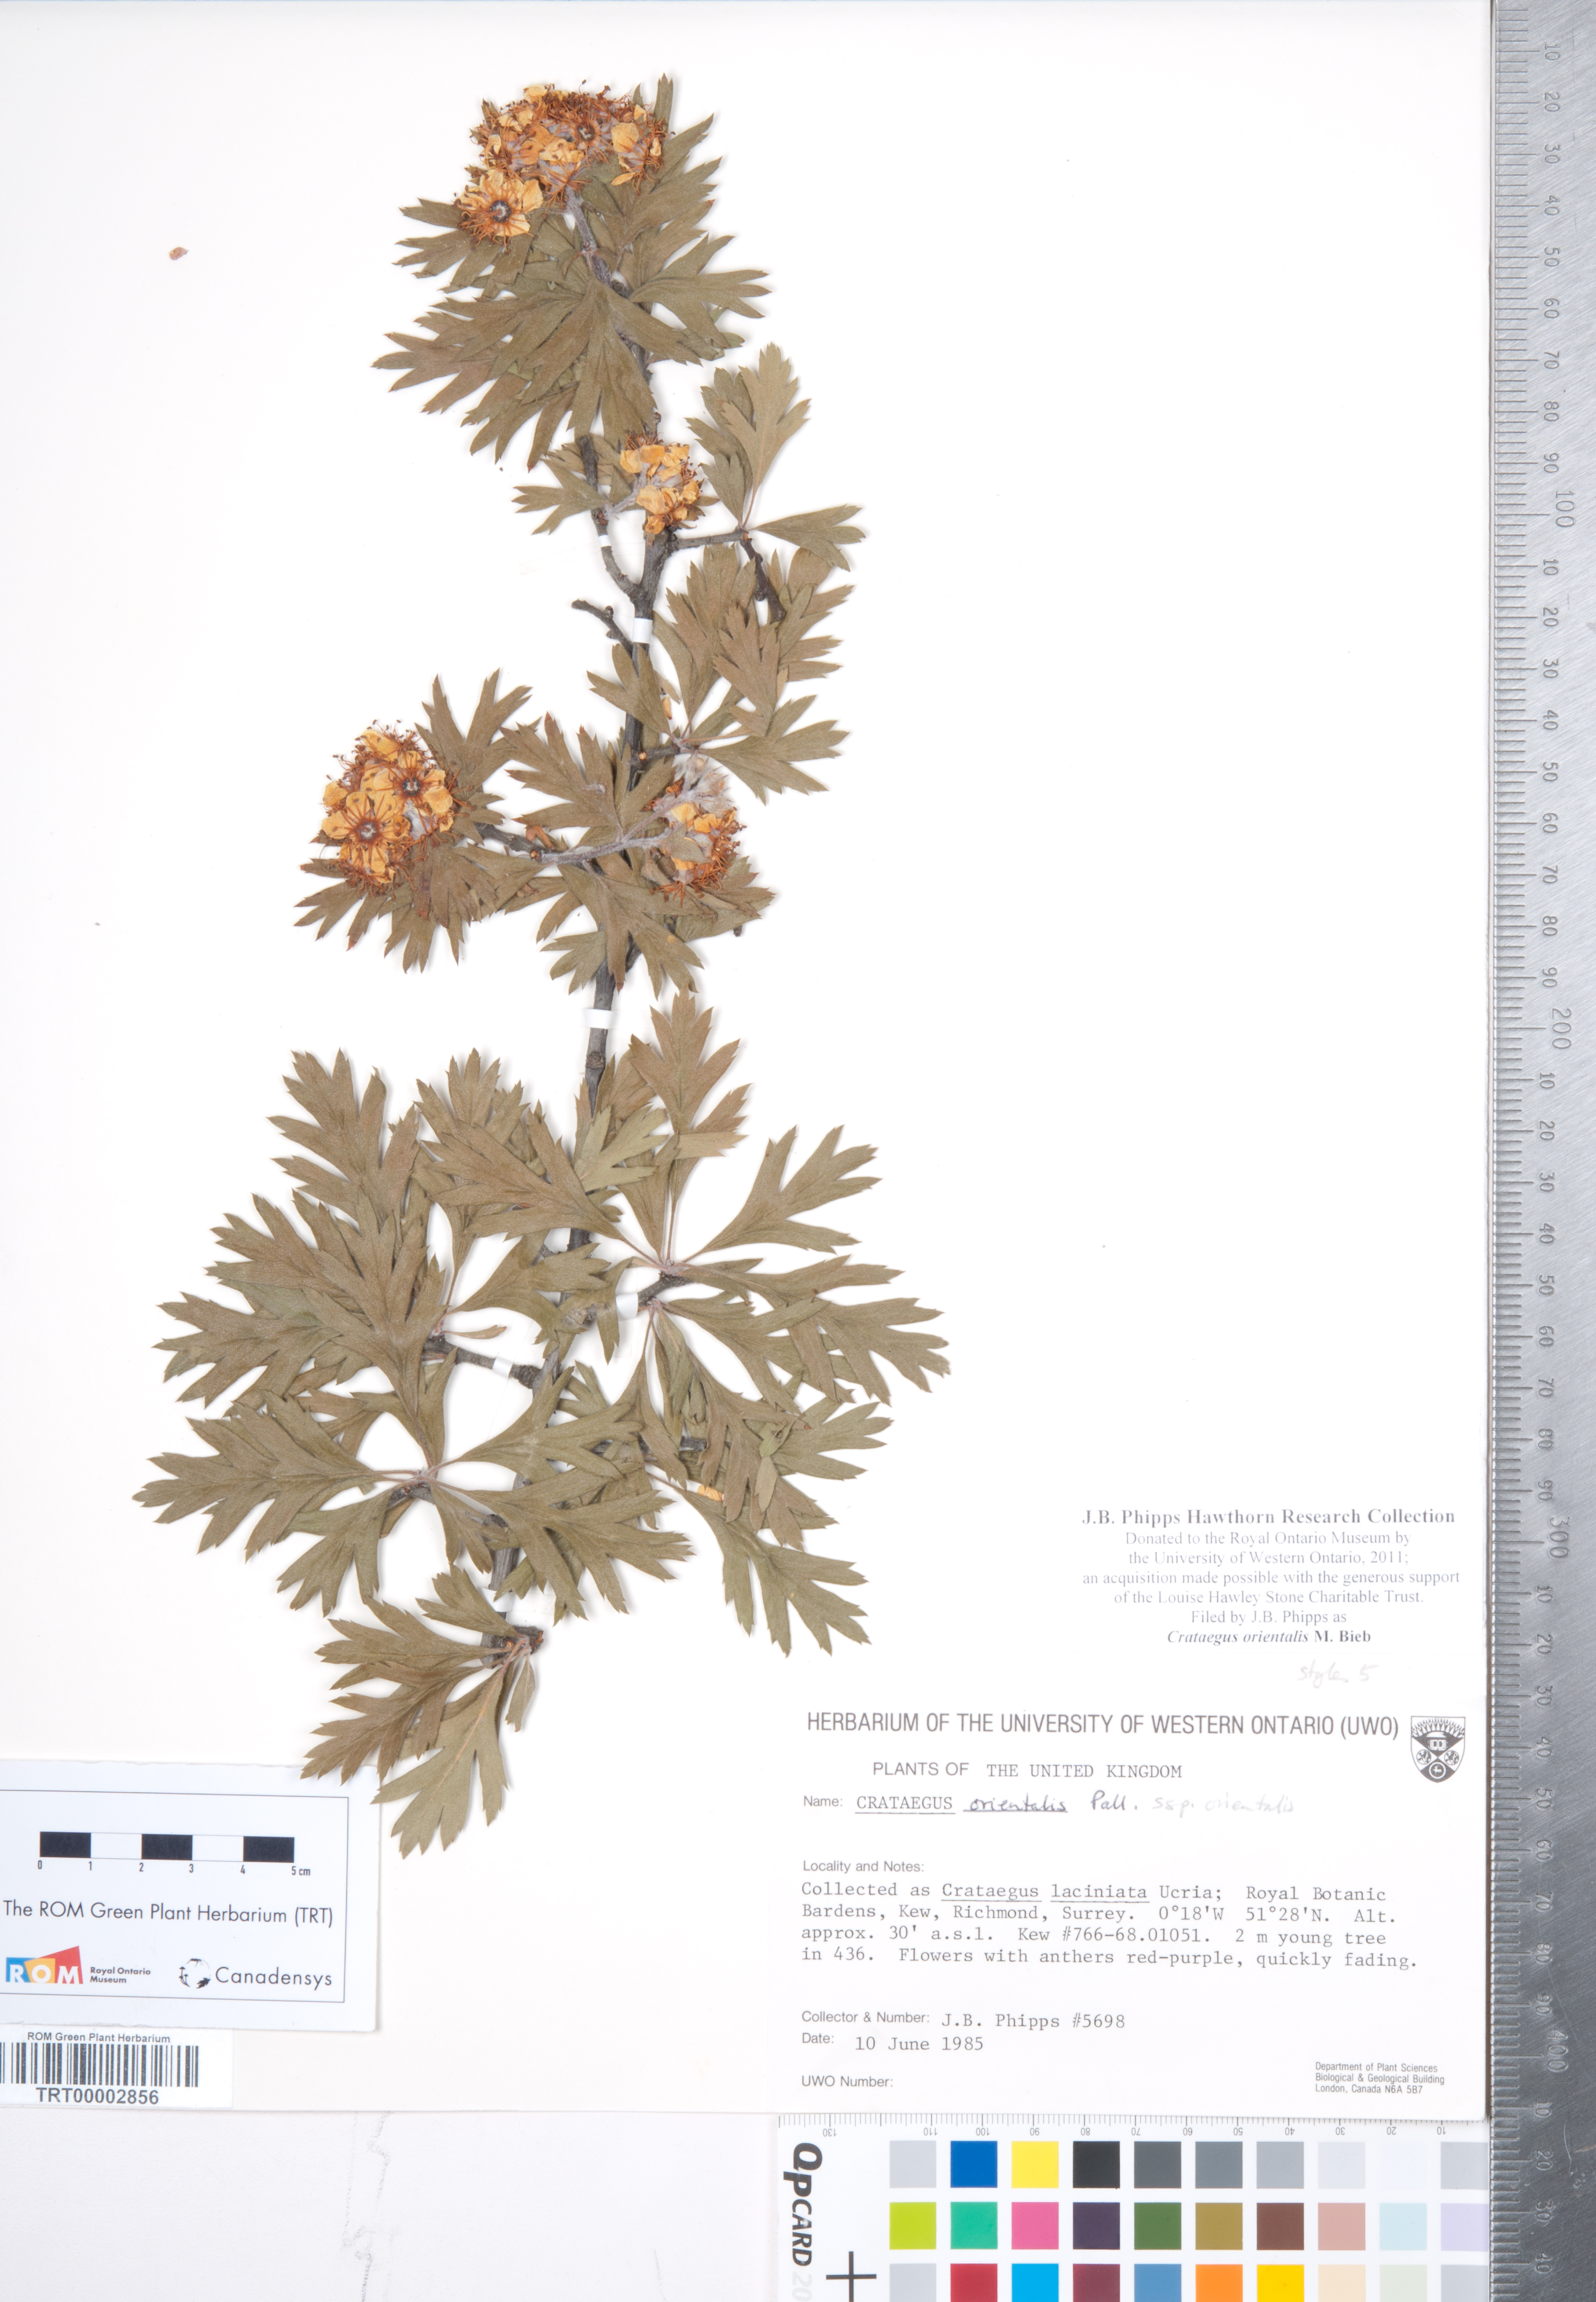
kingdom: Plantae
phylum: Tracheophyta
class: Magnoliopsida
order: Rosales
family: Rosaceae
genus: Crataegus
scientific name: Crataegus orientalis
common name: Oriental hawthorn
